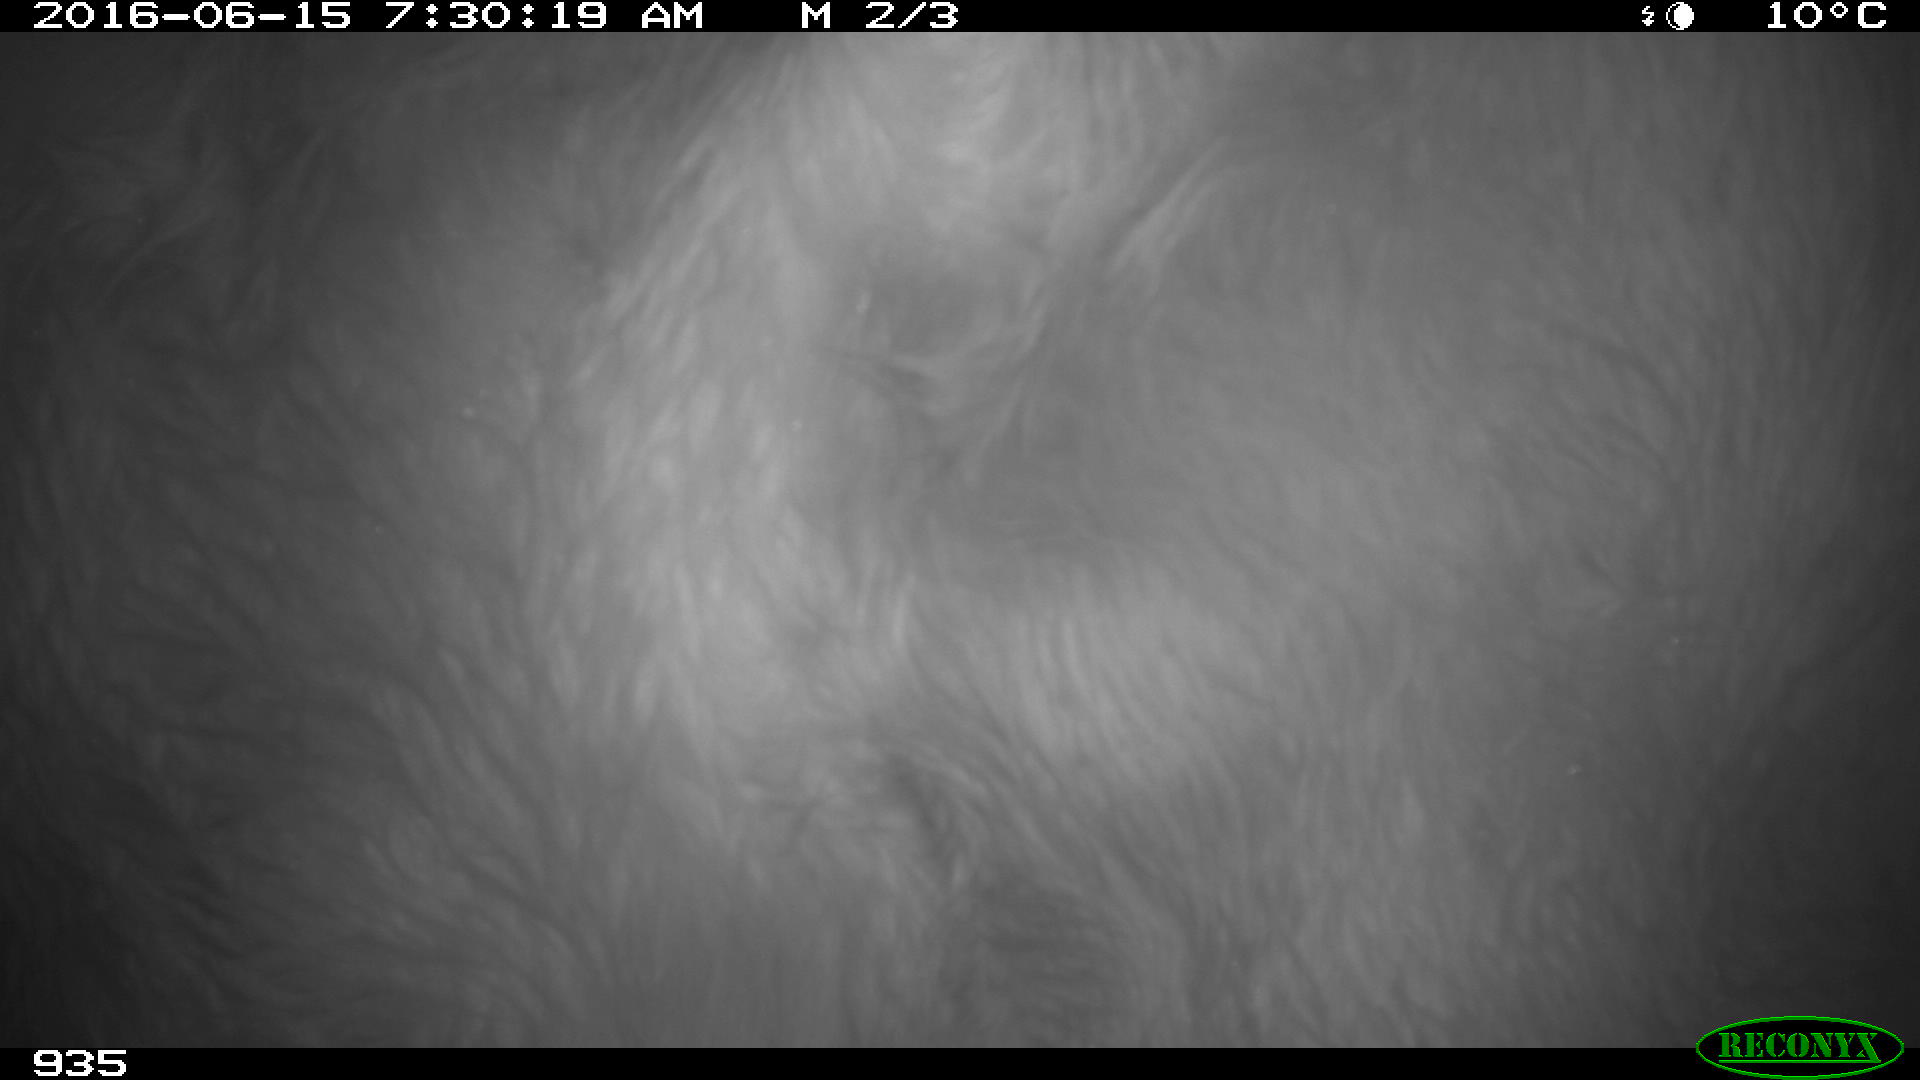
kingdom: Animalia
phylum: Chordata
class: Mammalia
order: Artiodactyla
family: Bovidae
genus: Bos
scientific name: Bos taurus
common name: Domesticated cattle
